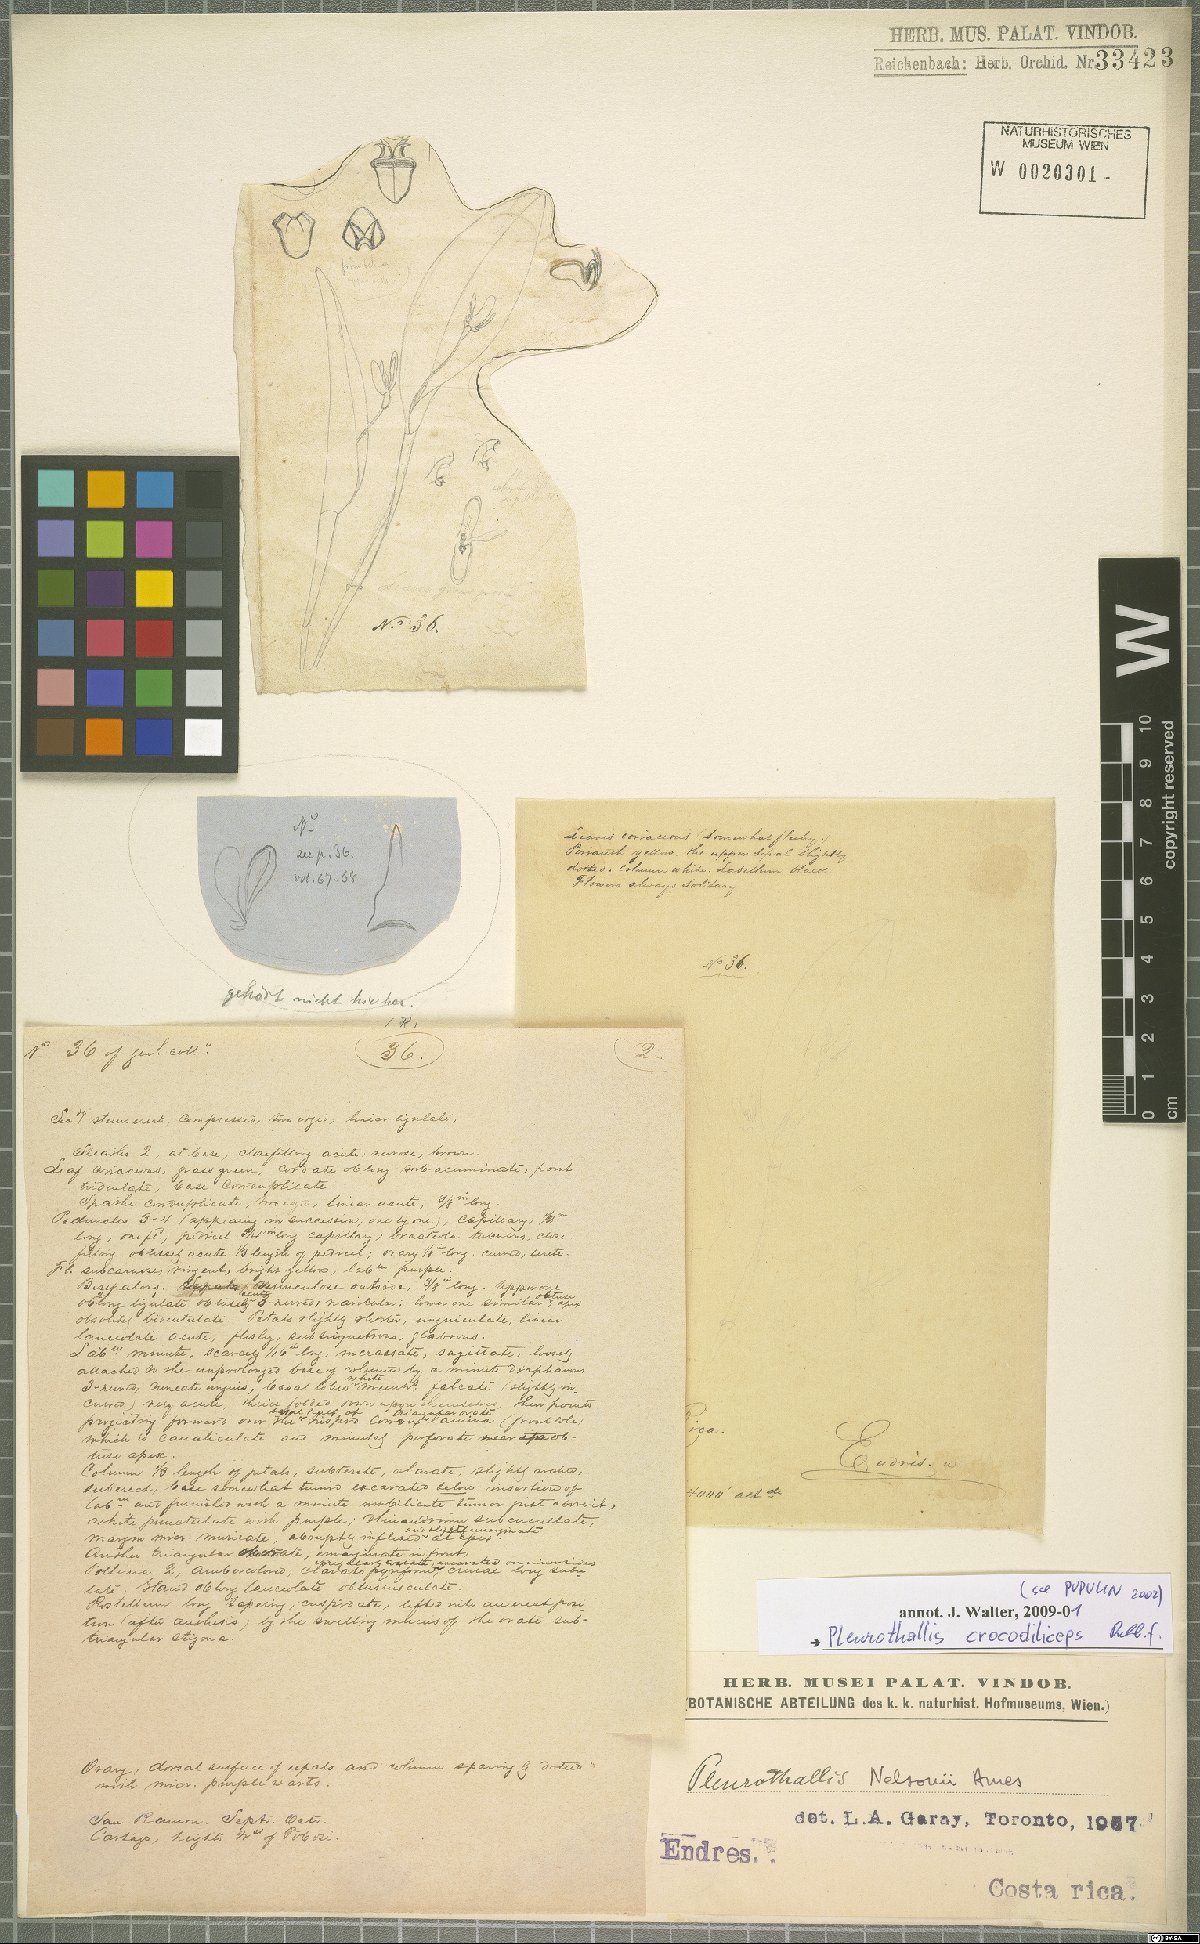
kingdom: Plantae
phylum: Tracheophyta
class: Liliopsida
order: Asparagales
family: Orchidaceae
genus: Pleurothallis
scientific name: Pleurothallis crocodiliceps
